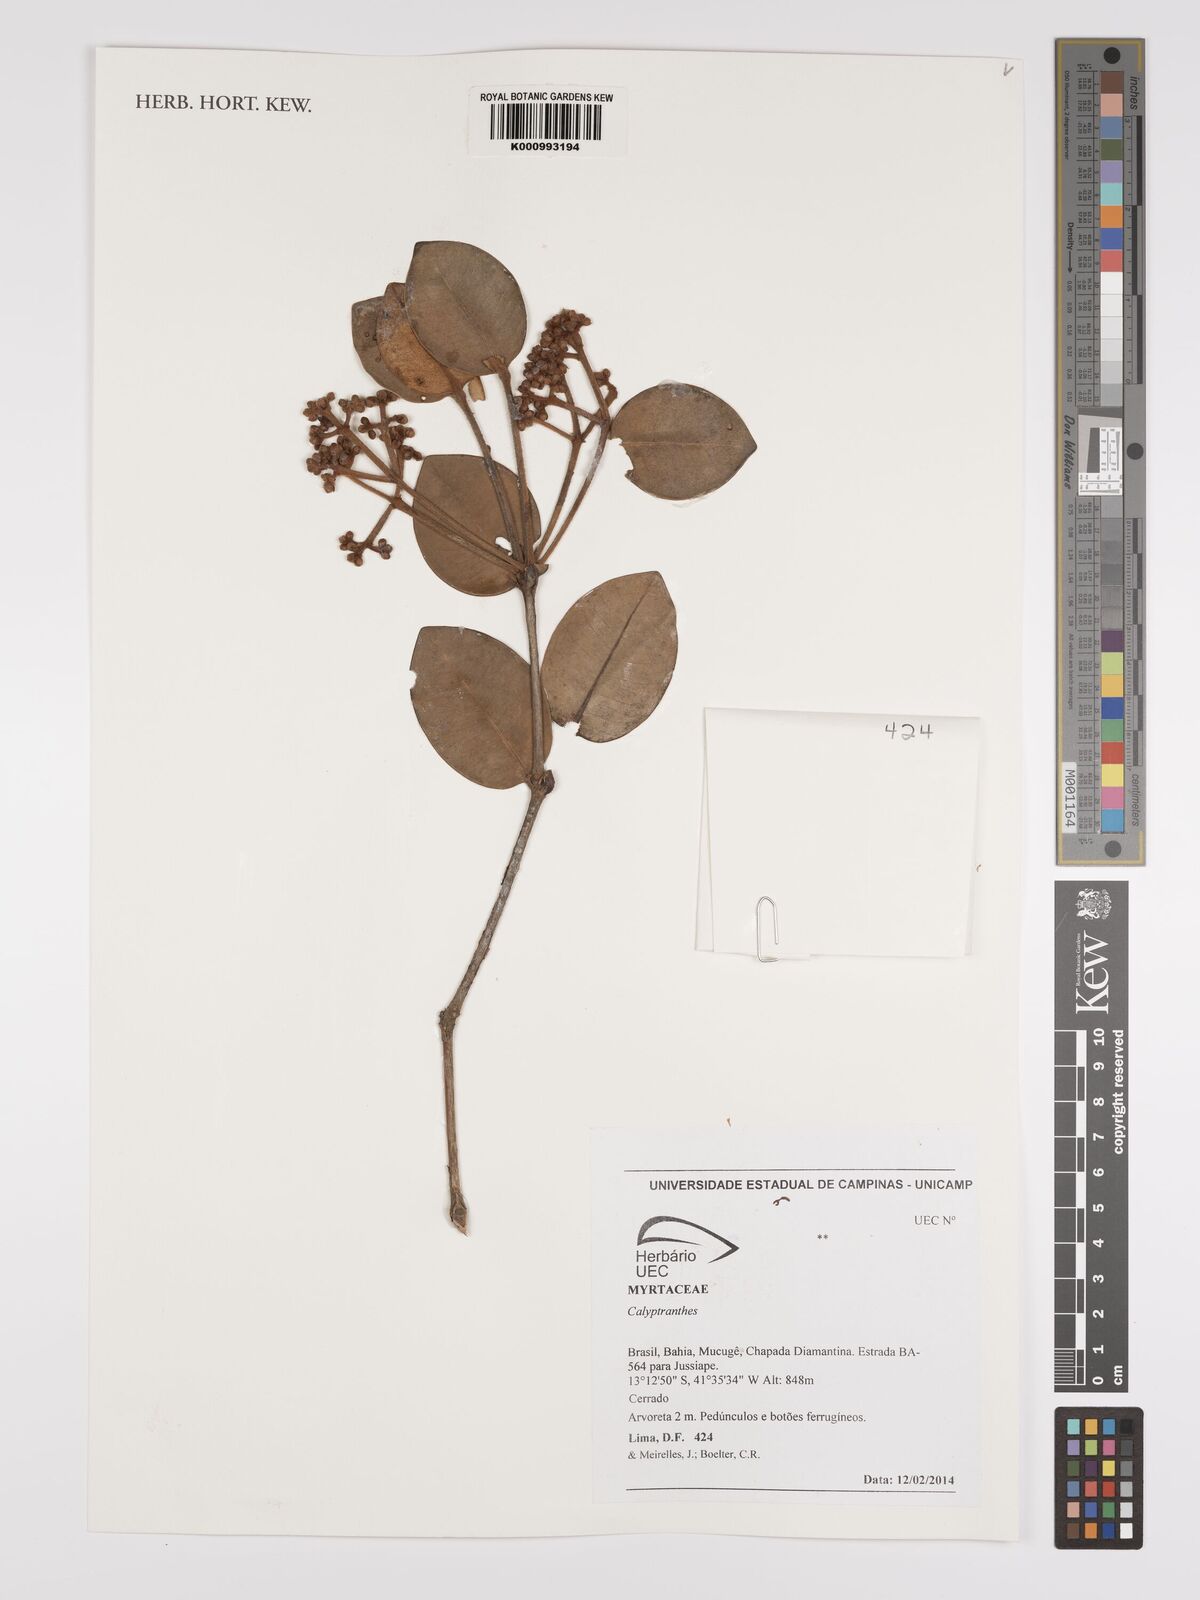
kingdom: Plantae
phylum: Tracheophyta
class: Magnoliopsida
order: Myrtales
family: Myrtaceae
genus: Calyptranthes
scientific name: Calyptranthes
